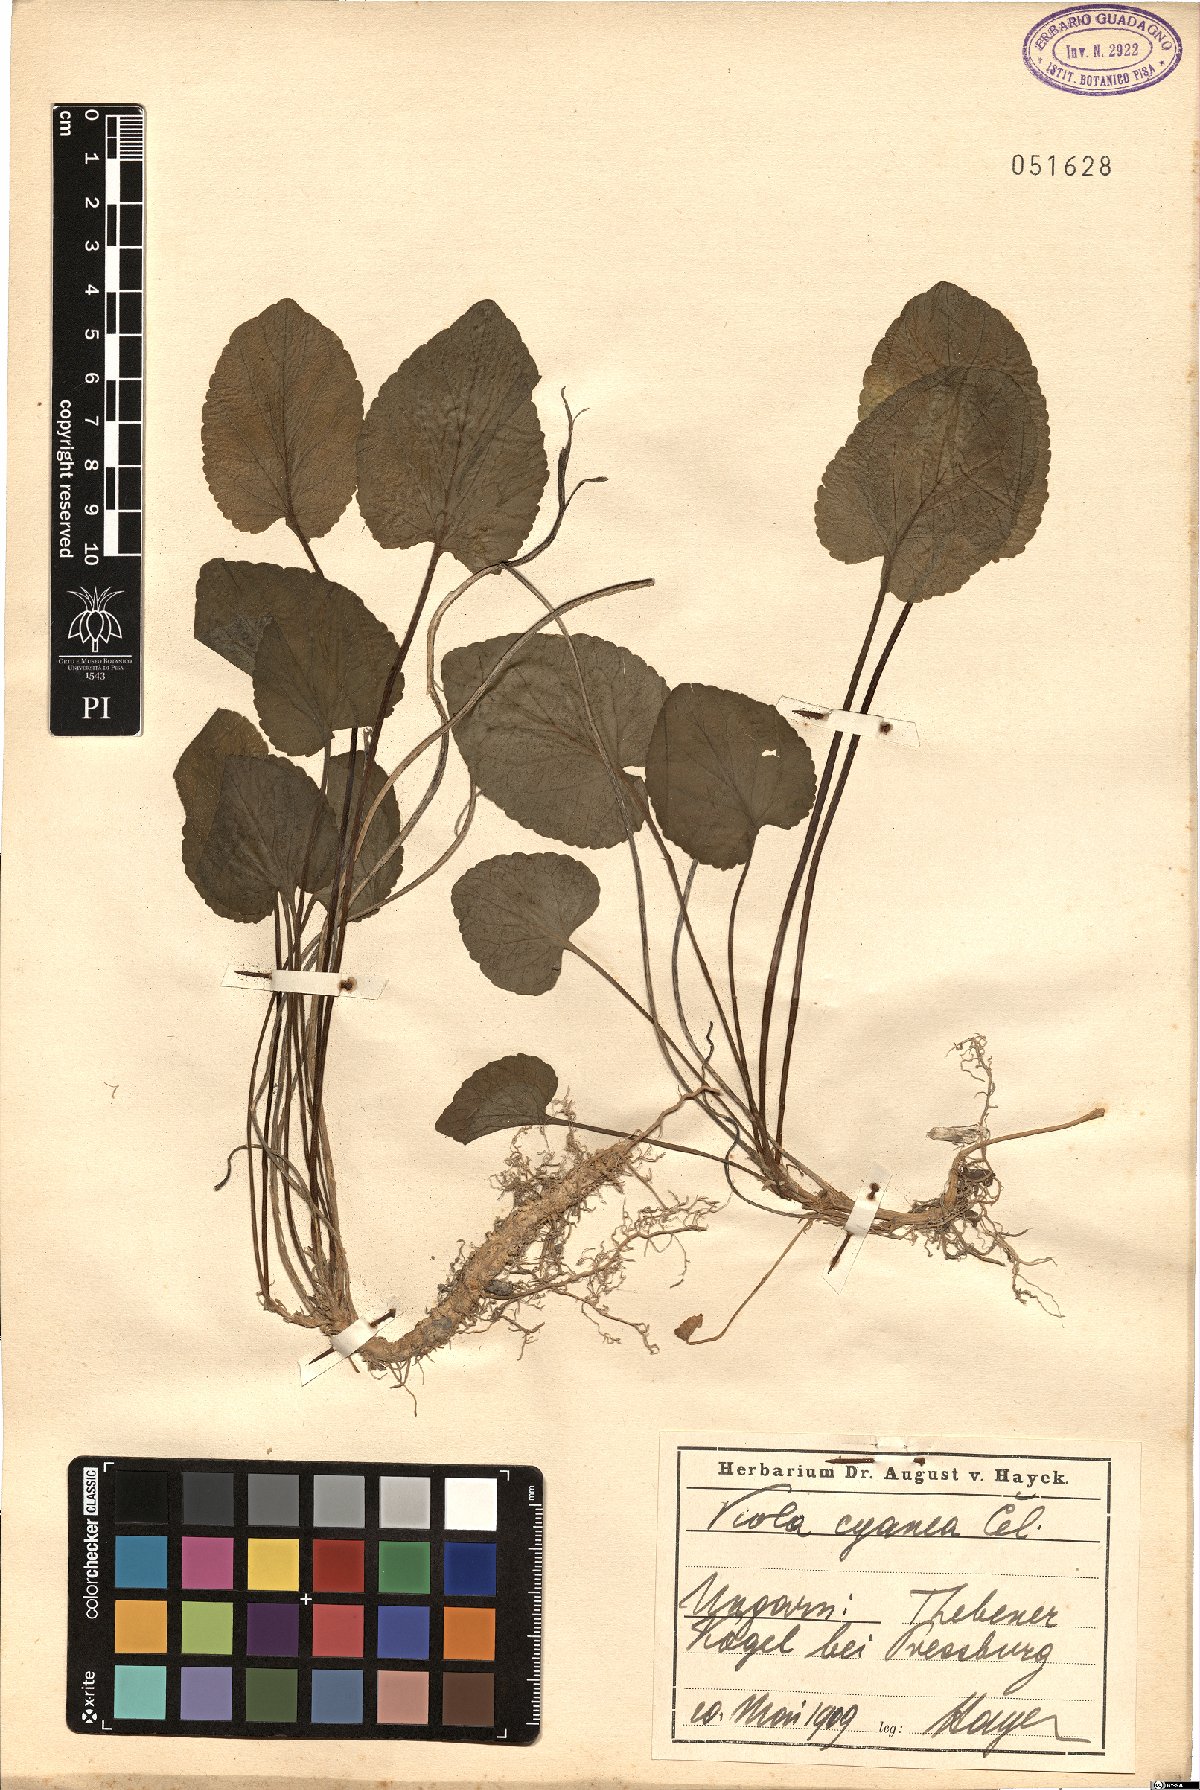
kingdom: Plantae
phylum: Tracheophyta
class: Magnoliopsida
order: Malpighiales
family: Violaceae
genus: Viola
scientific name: Viola suavis
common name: Russian violet
